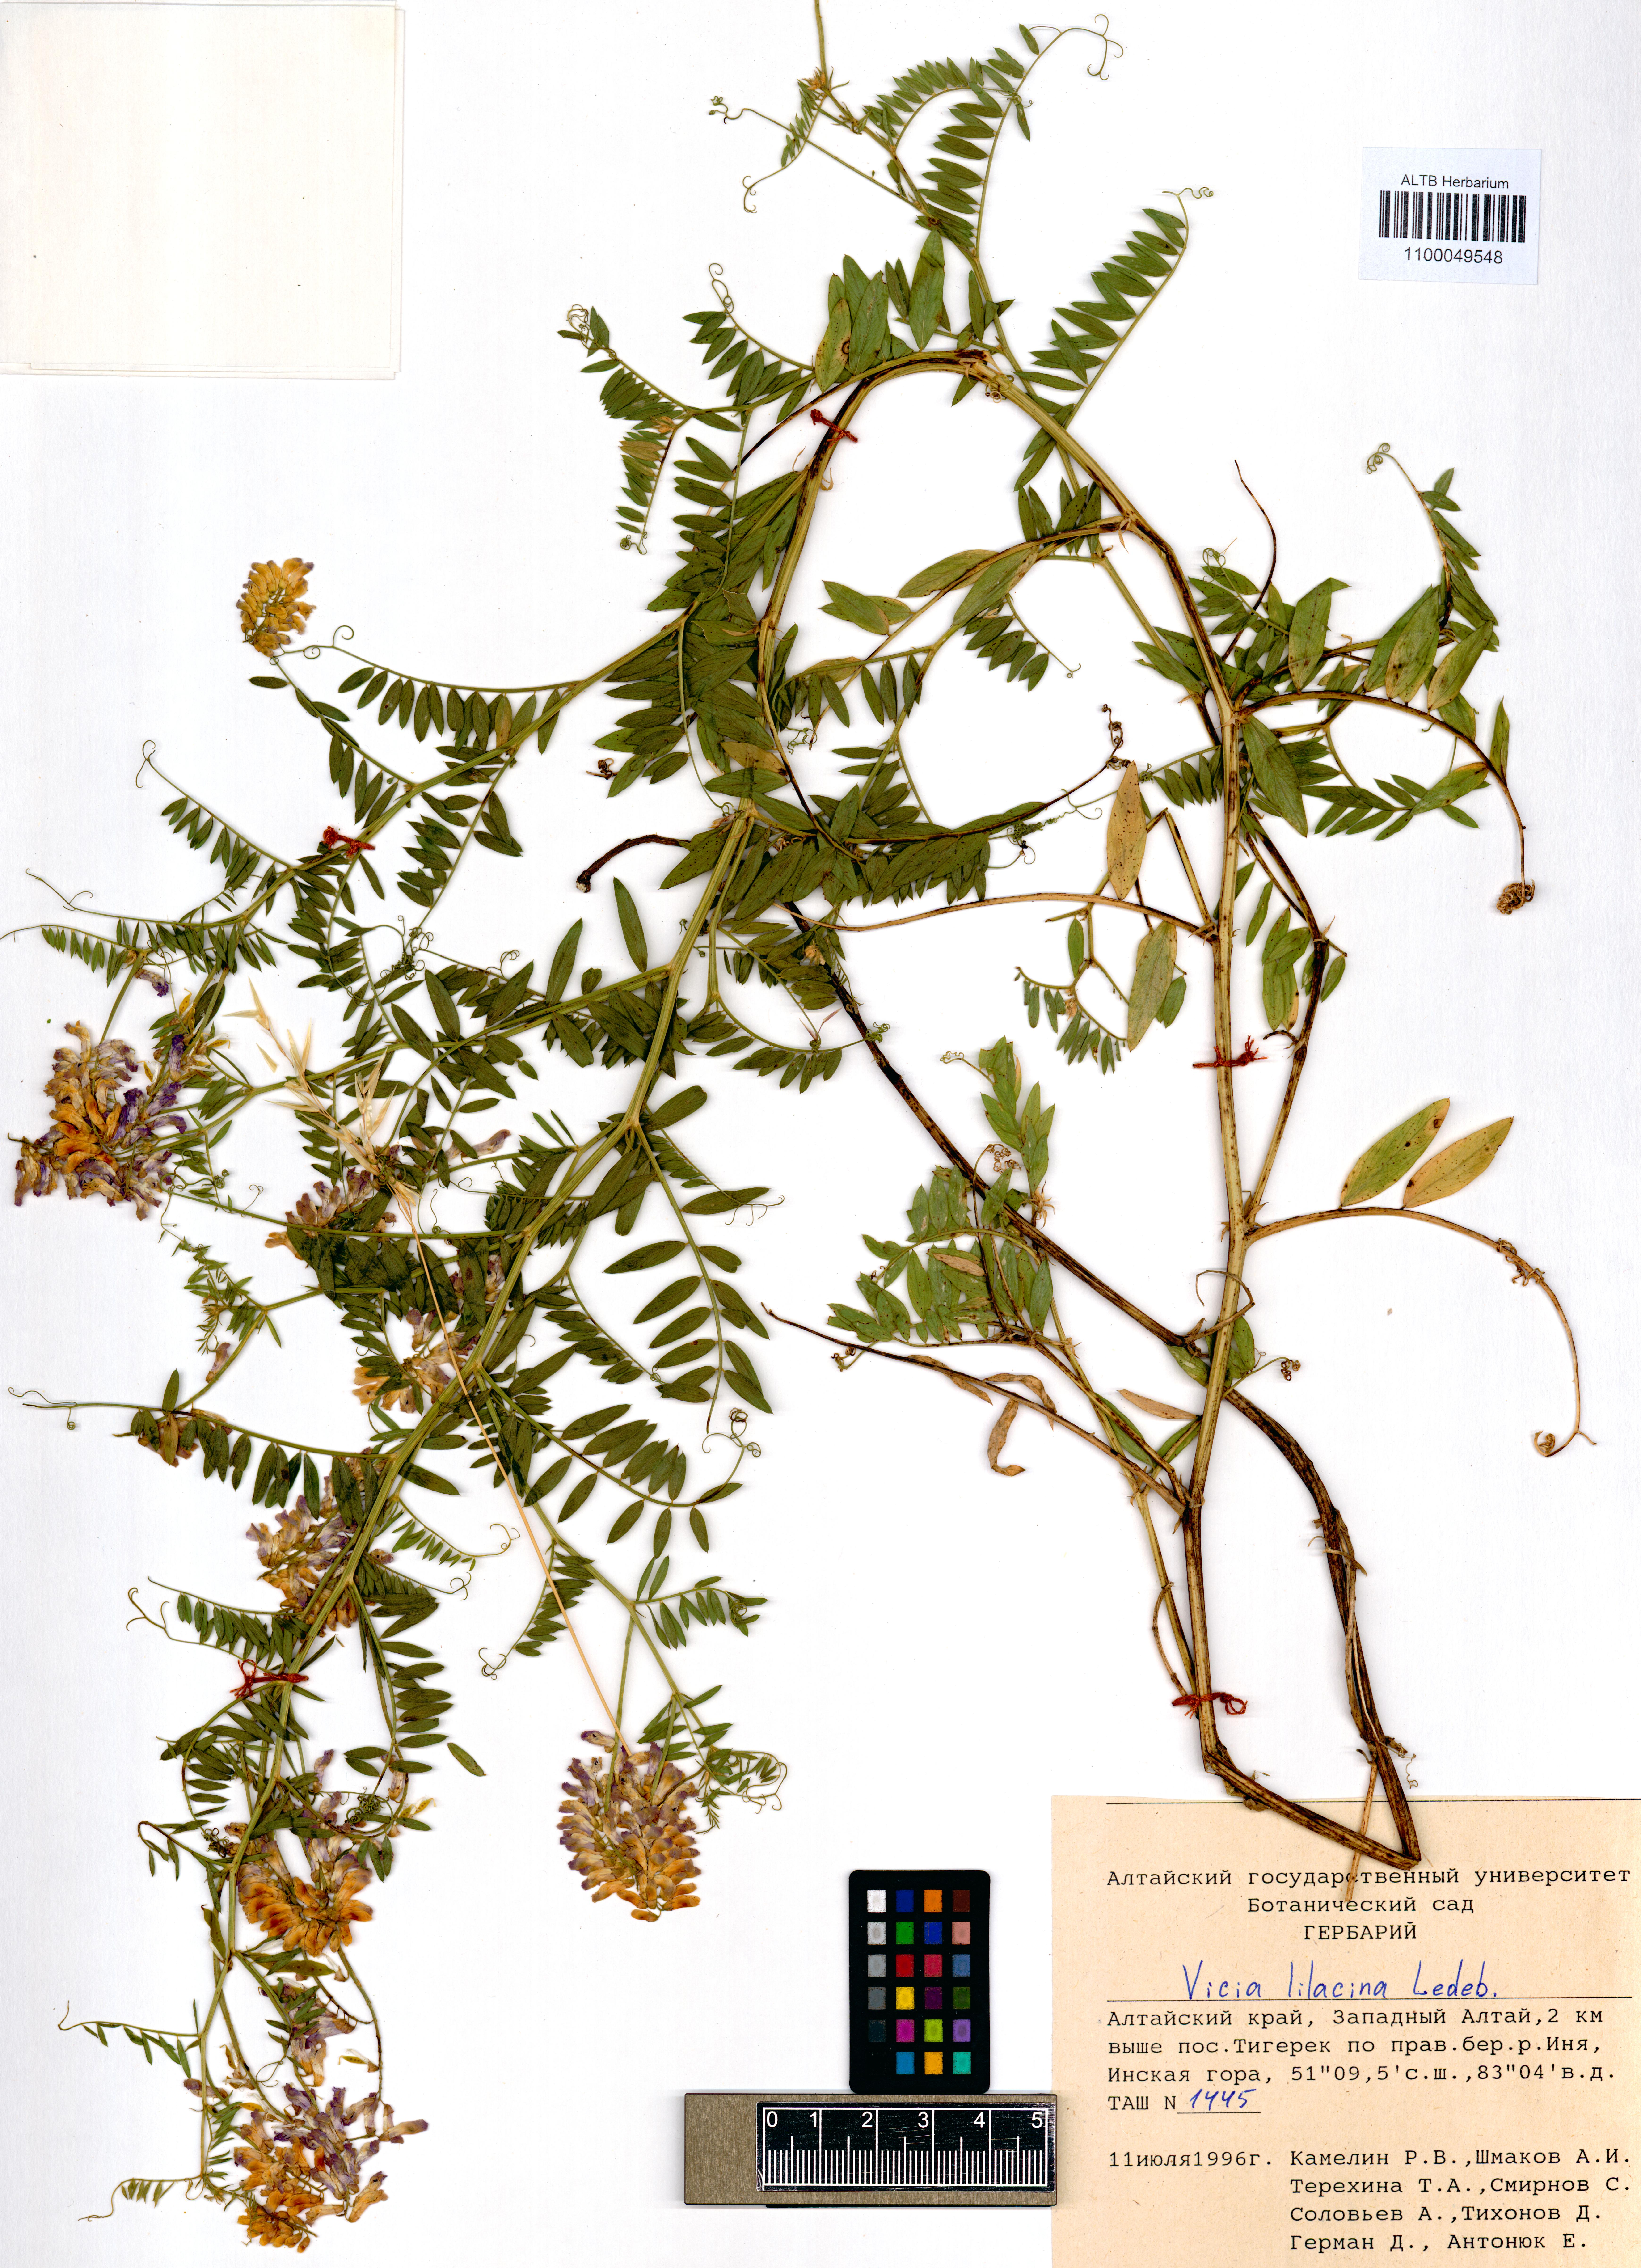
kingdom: Plantae
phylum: Tracheophyta
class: Magnoliopsida
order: Fabales
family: Fabaceae
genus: Vicia
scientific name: Vicia lilacina
